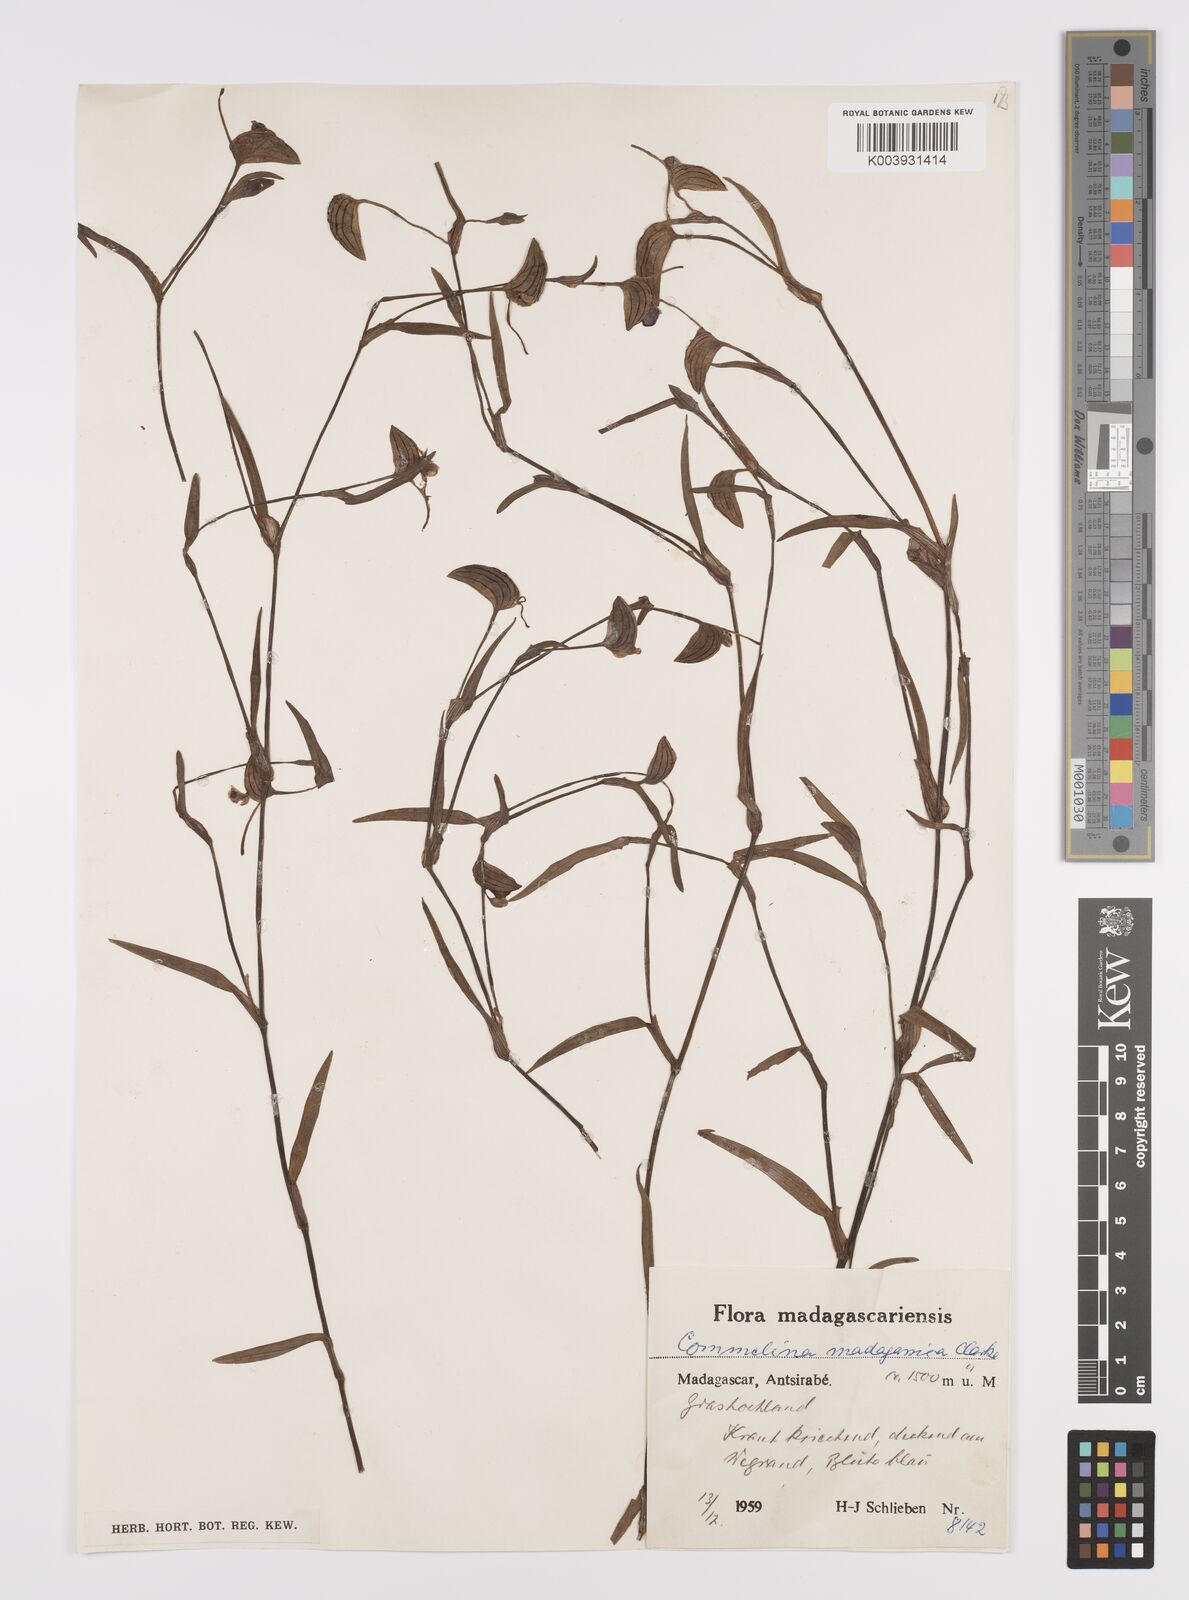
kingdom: Plantae
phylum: Tracheophyta
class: Liliopsida
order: Commelinales
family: Commelinaceae
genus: Commelina
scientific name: Commelina madagascarica
